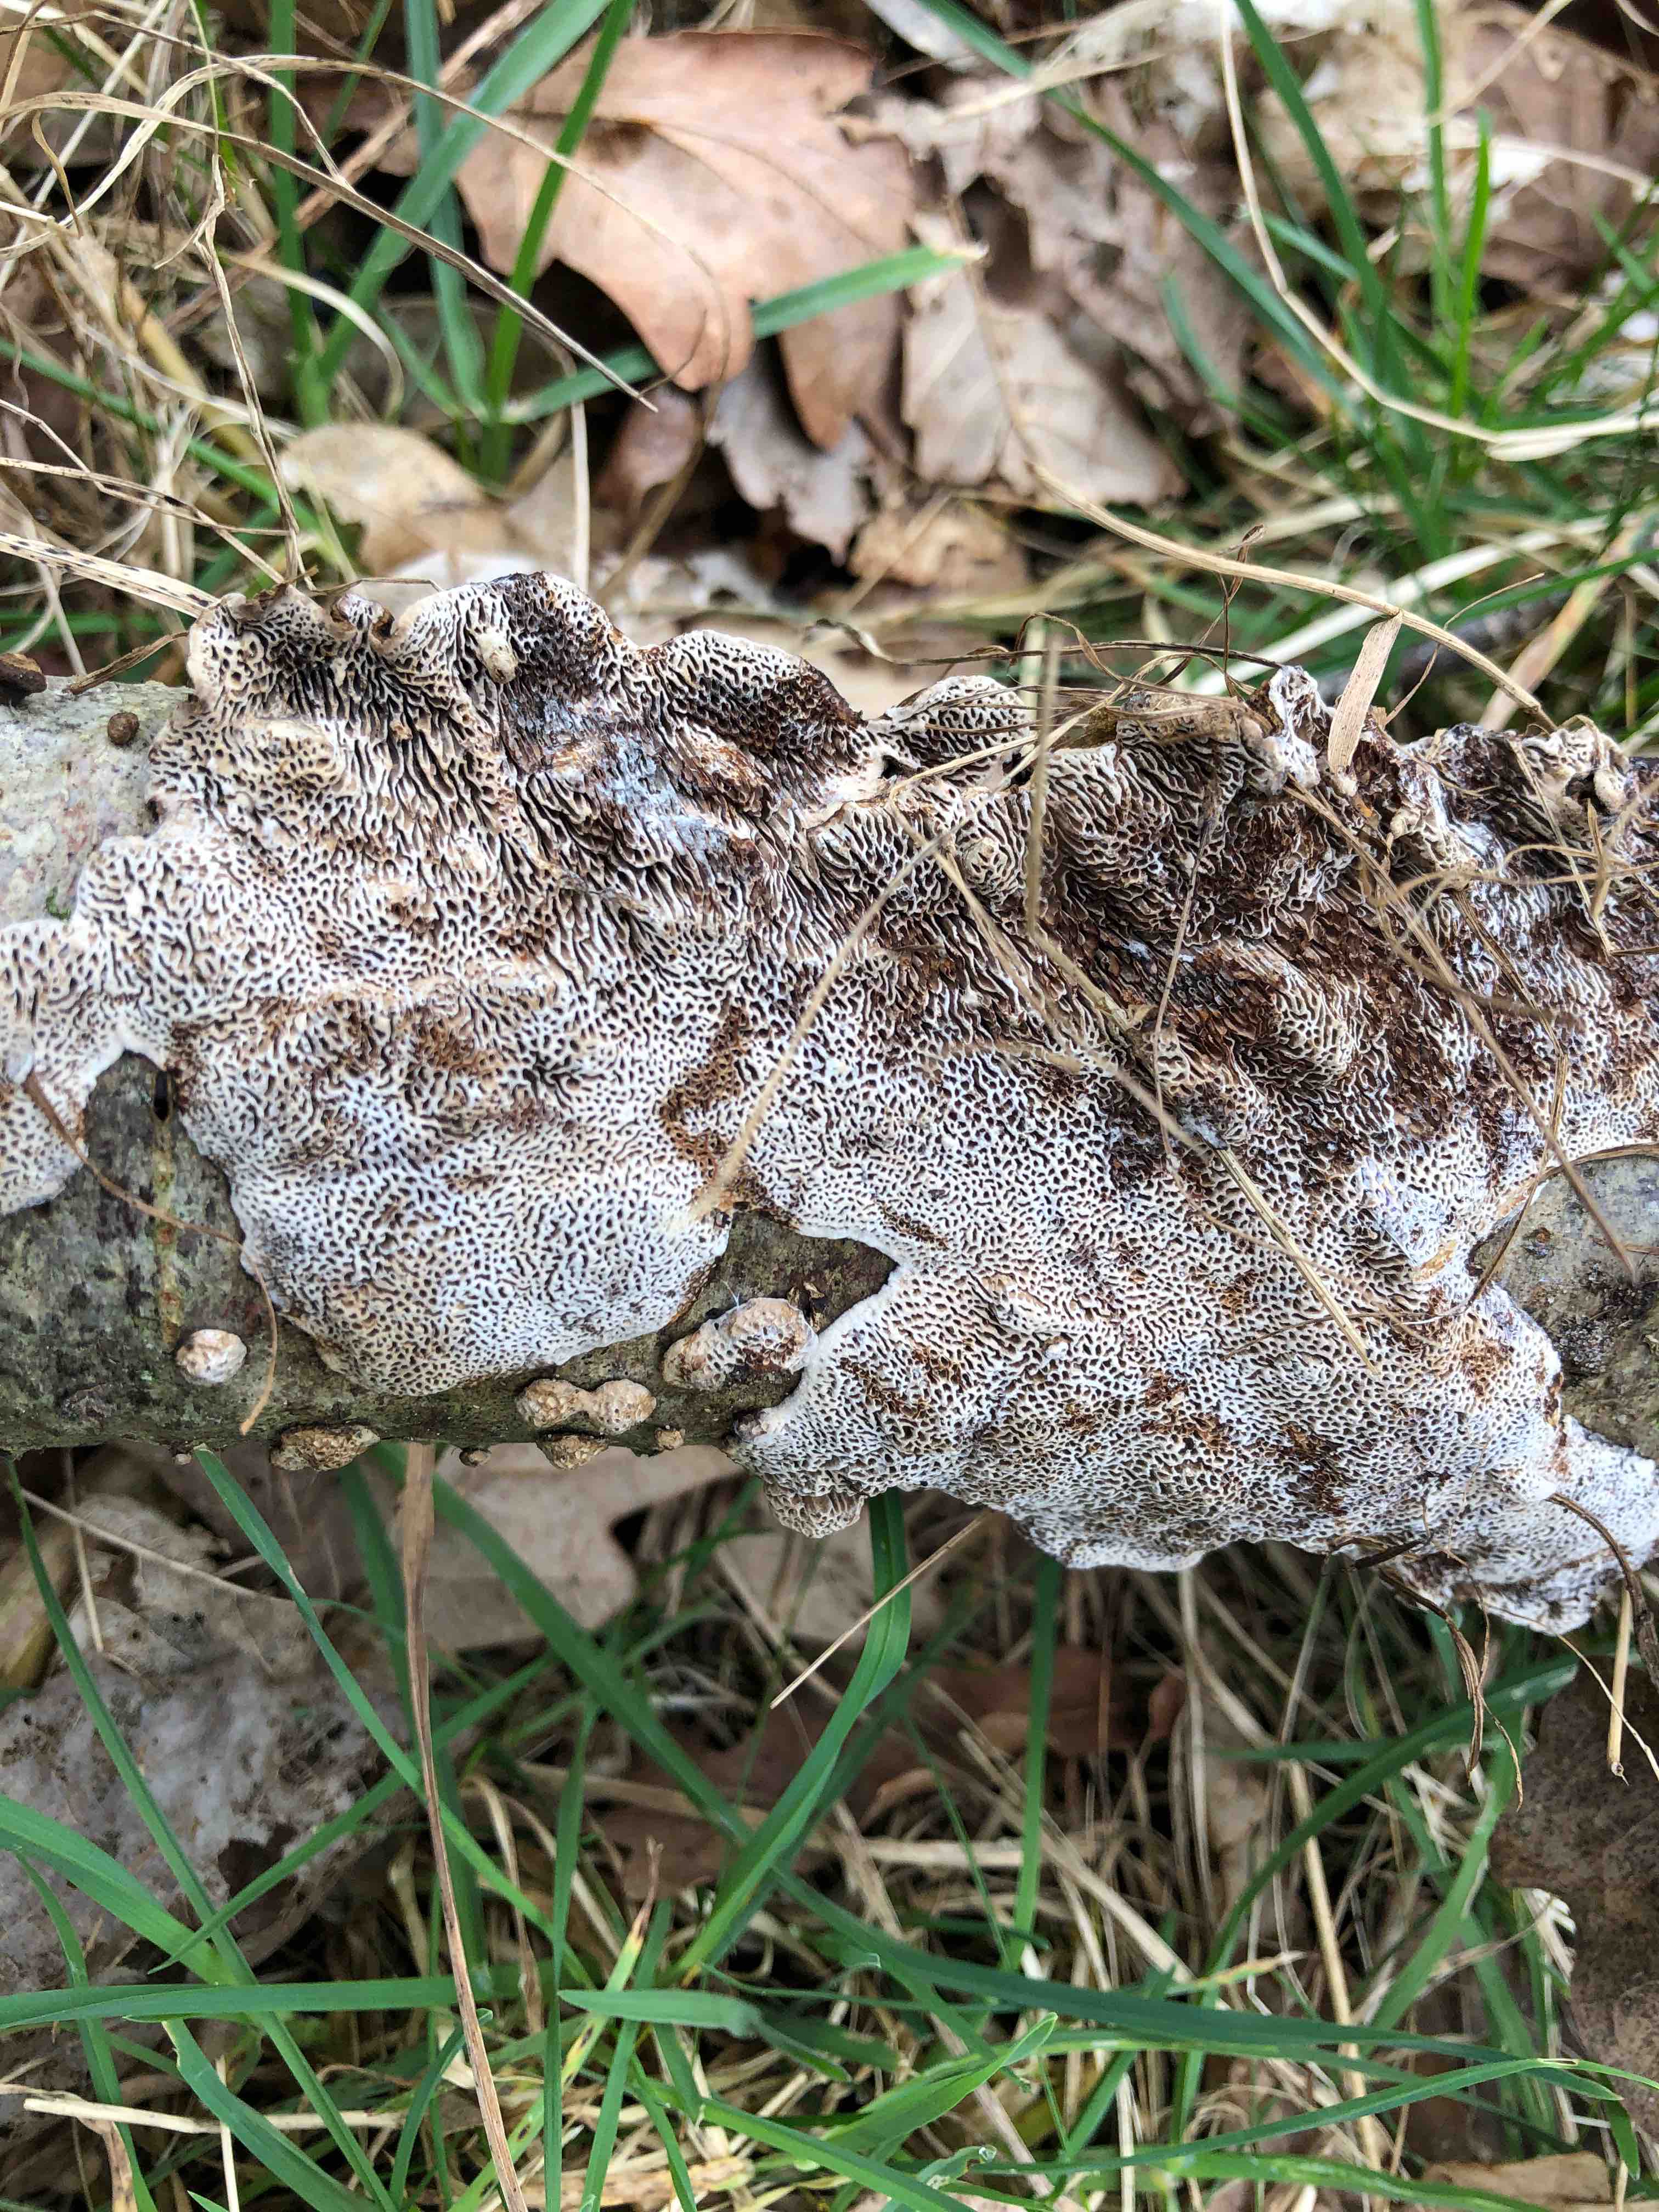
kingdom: Fungi
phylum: Basidiomycota
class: Agaricomycetes
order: Polyporales
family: Polyporaceae
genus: Podofomes
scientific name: Podofomes mollis
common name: blød begporesvamp
